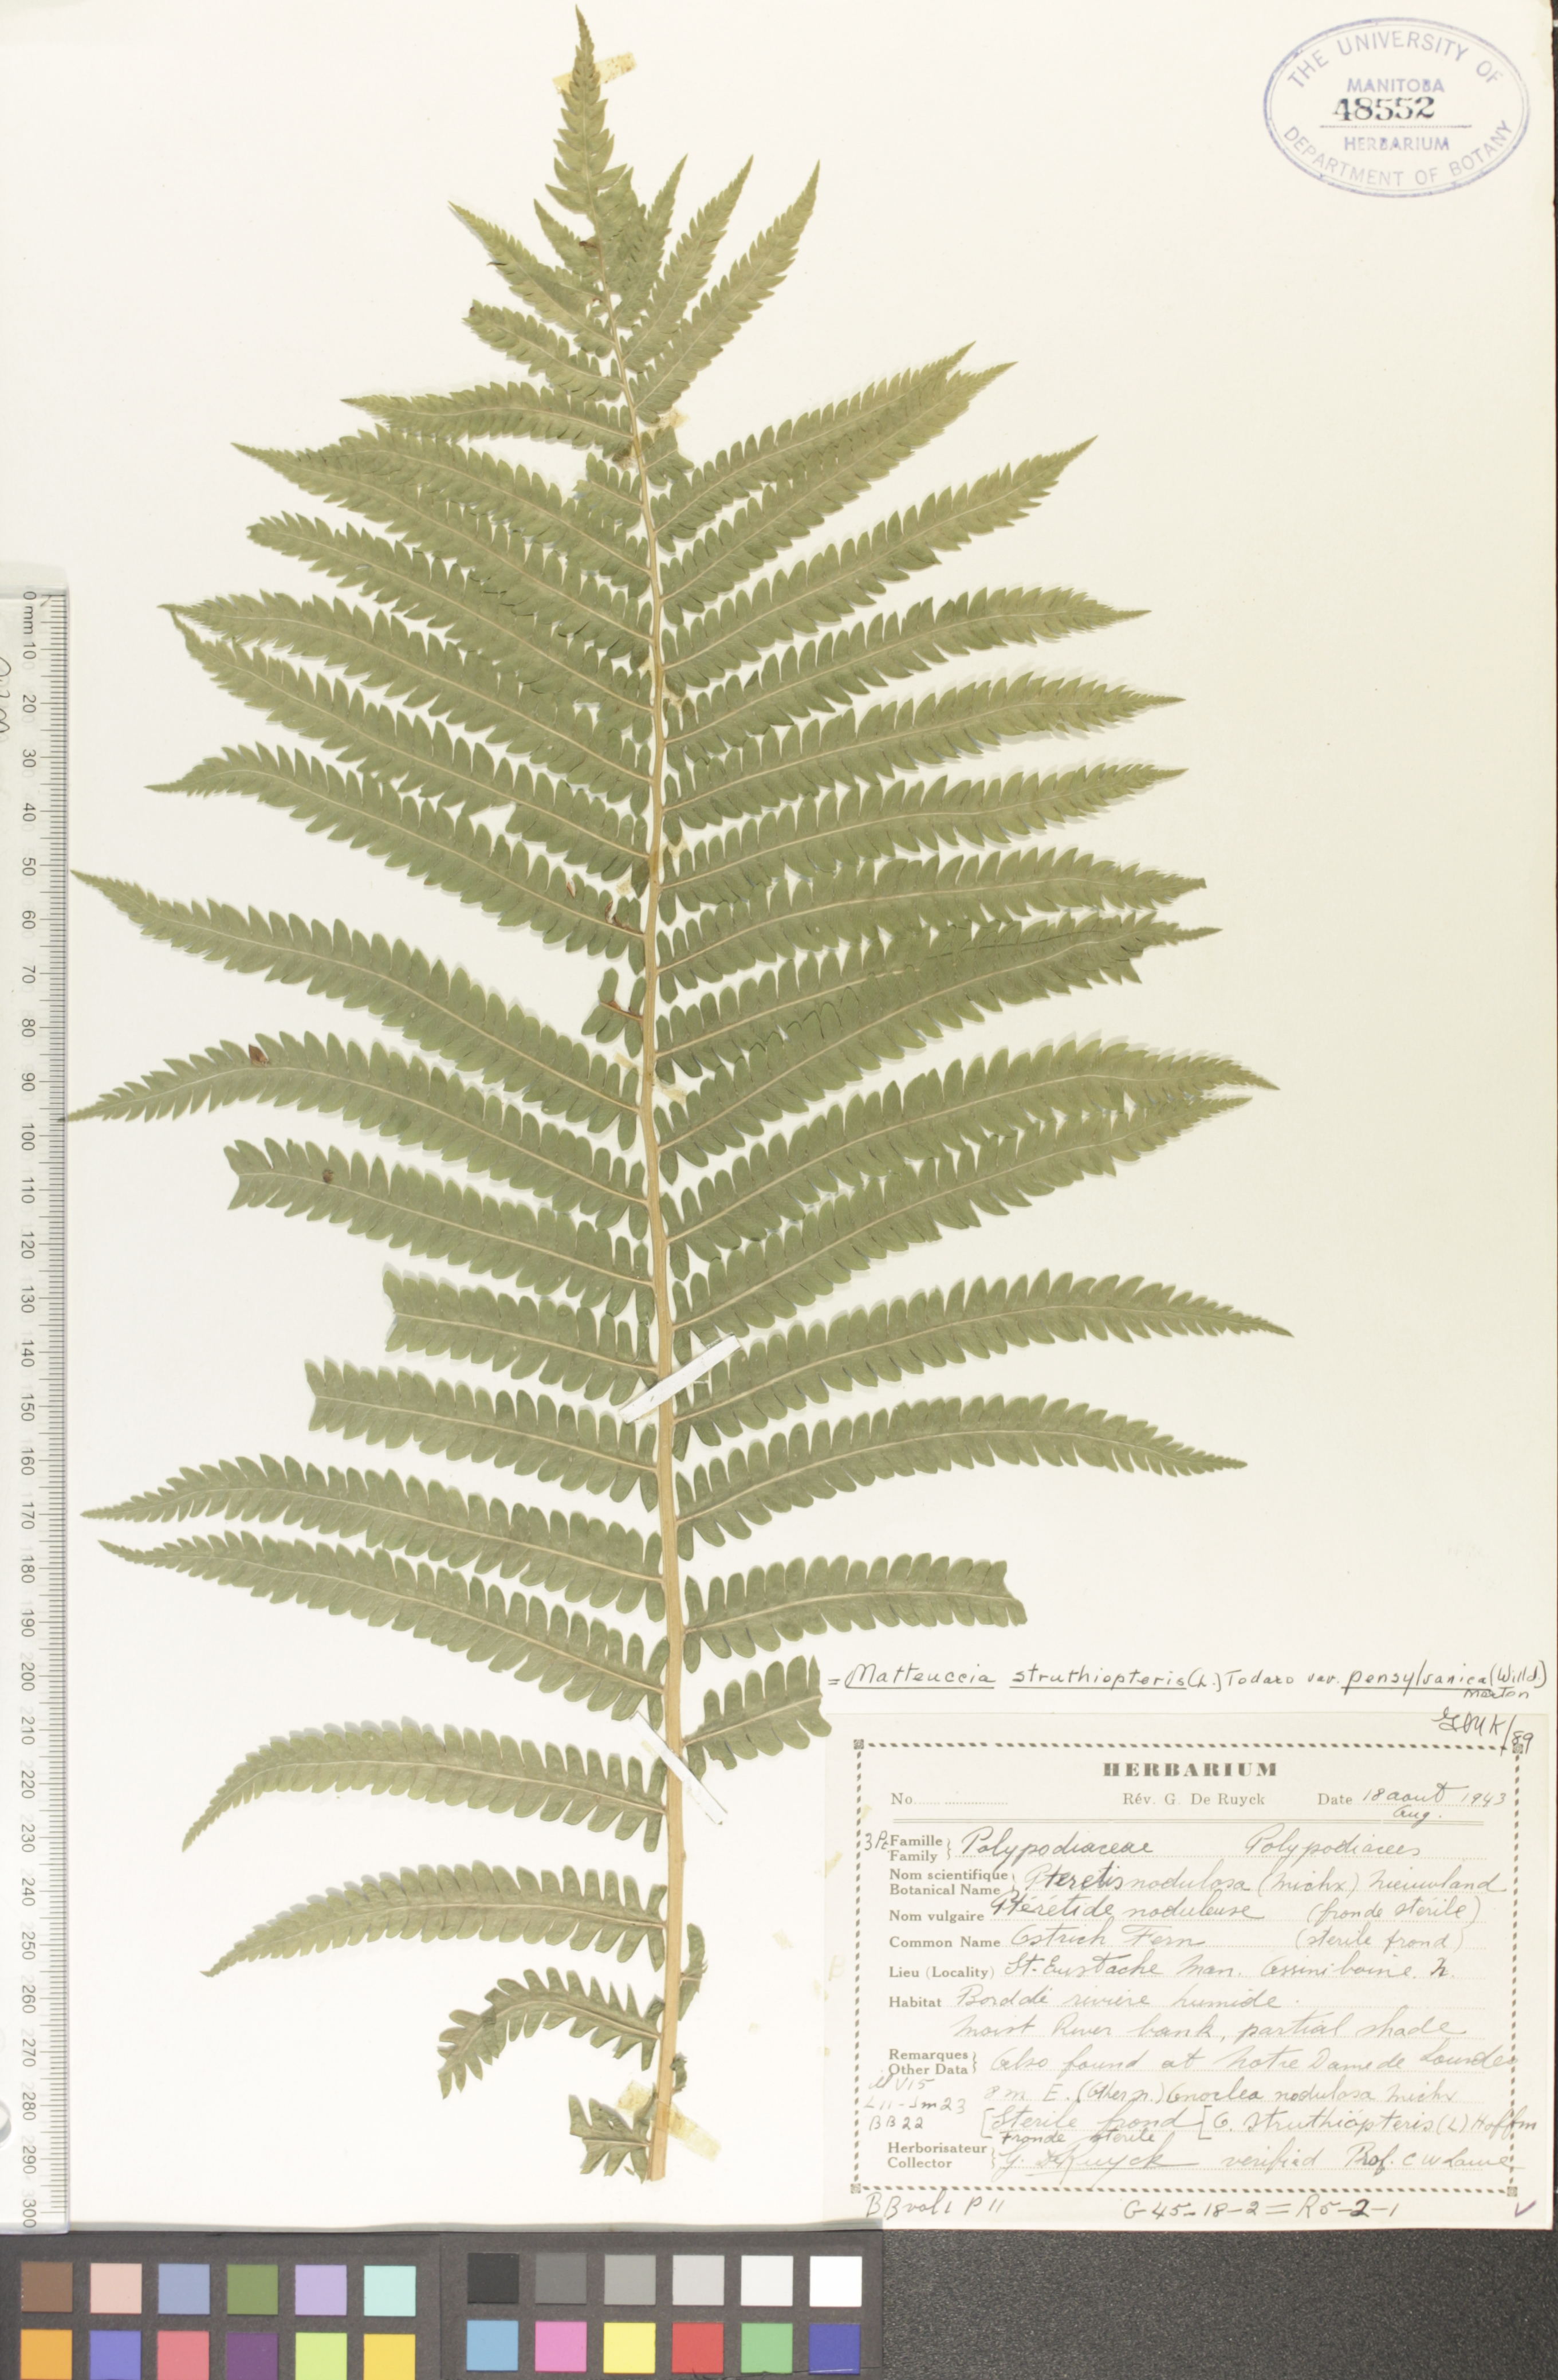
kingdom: Plantae
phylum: Tracheophyta
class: Polypodiopsida
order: Polypodiales
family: Onocleaceae
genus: Matteuccia
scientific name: Matteuccia pensylvanica
